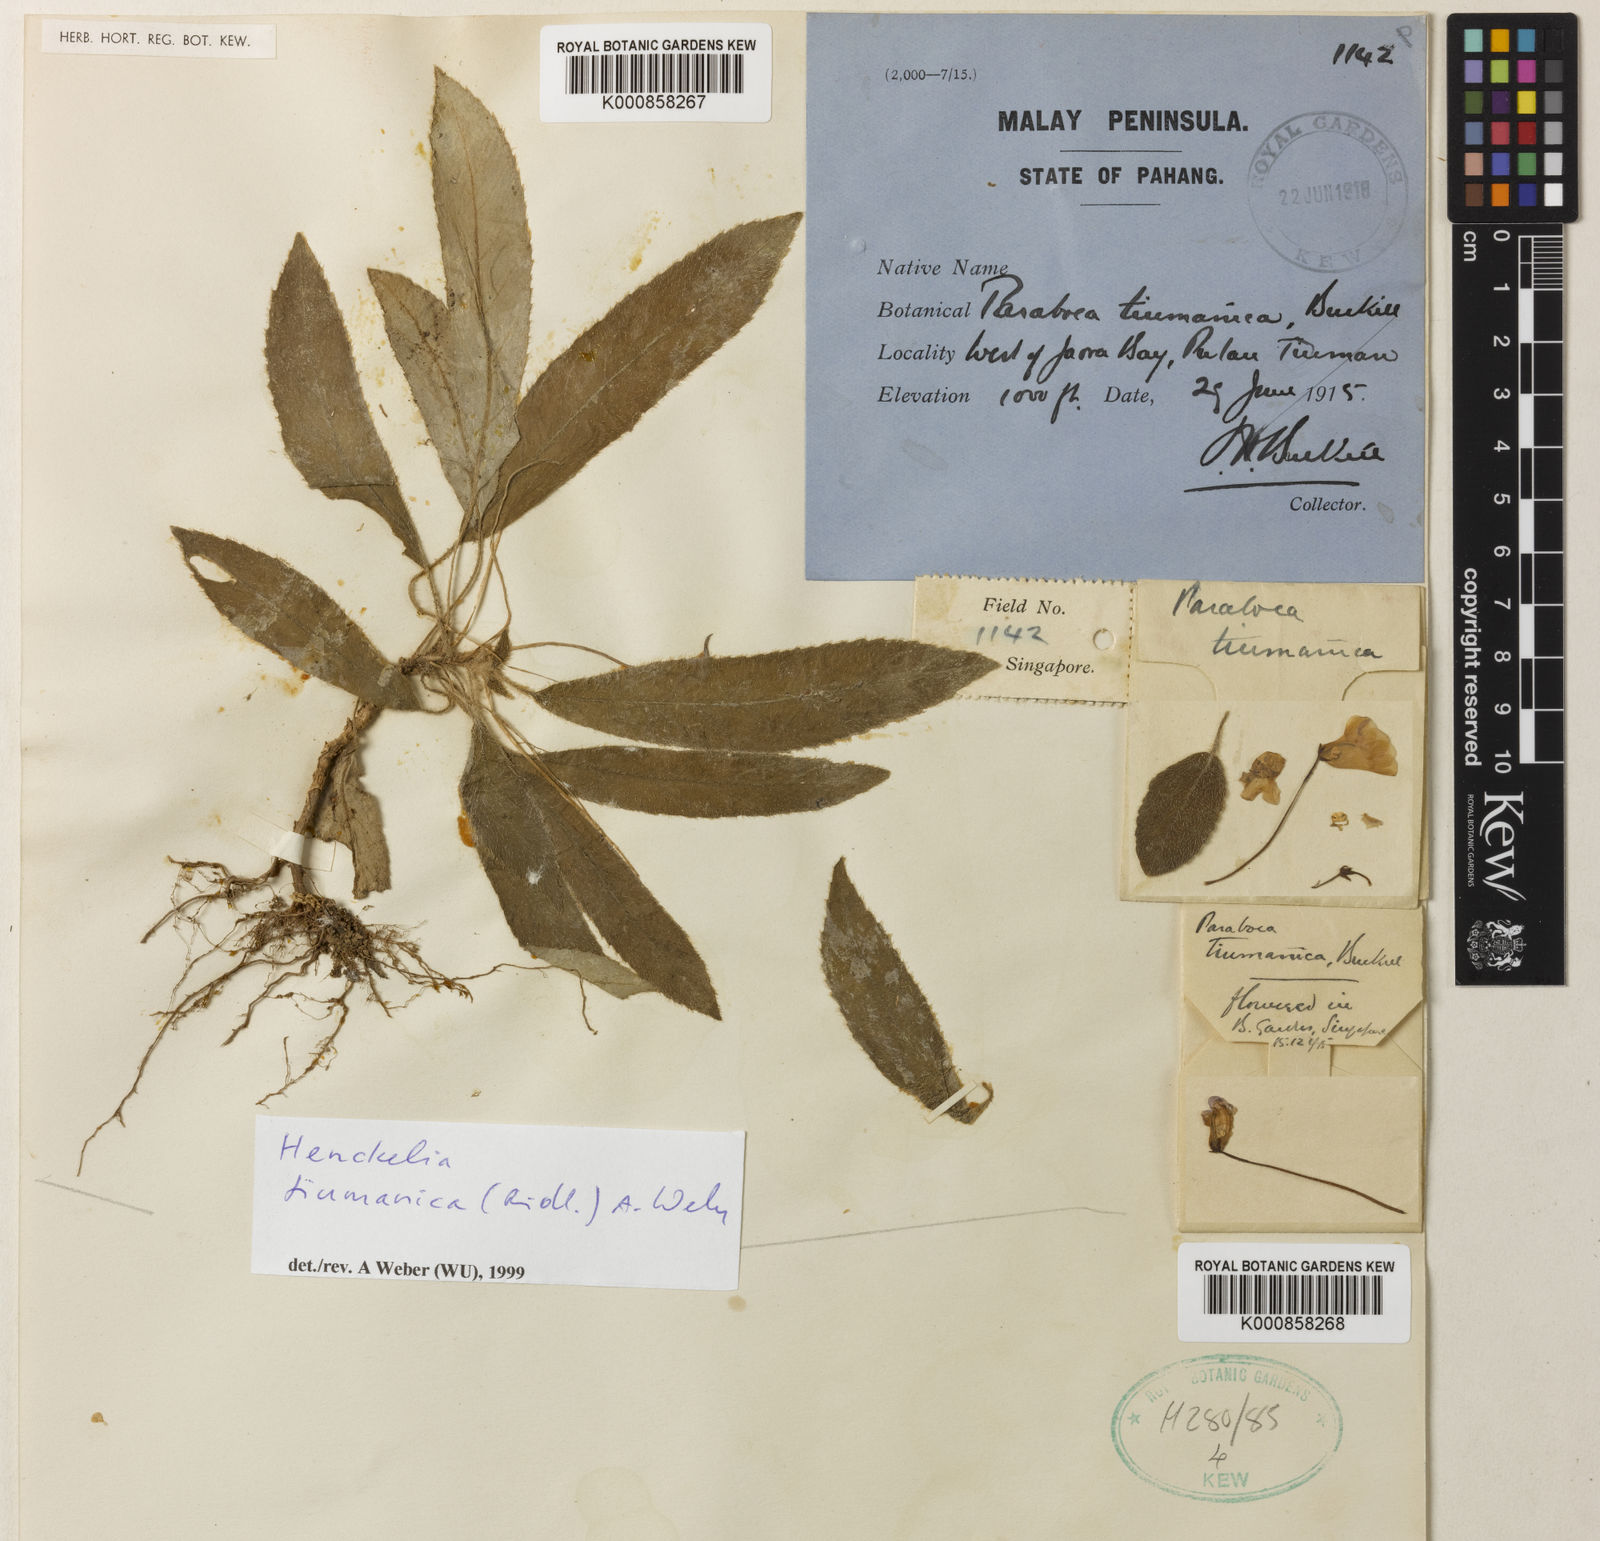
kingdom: Plantae
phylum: Tracheophyta
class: Magnoliopsida
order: Lamiales
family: Gesneriaceae
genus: Codonoboea
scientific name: Codonoboea tiumanica
